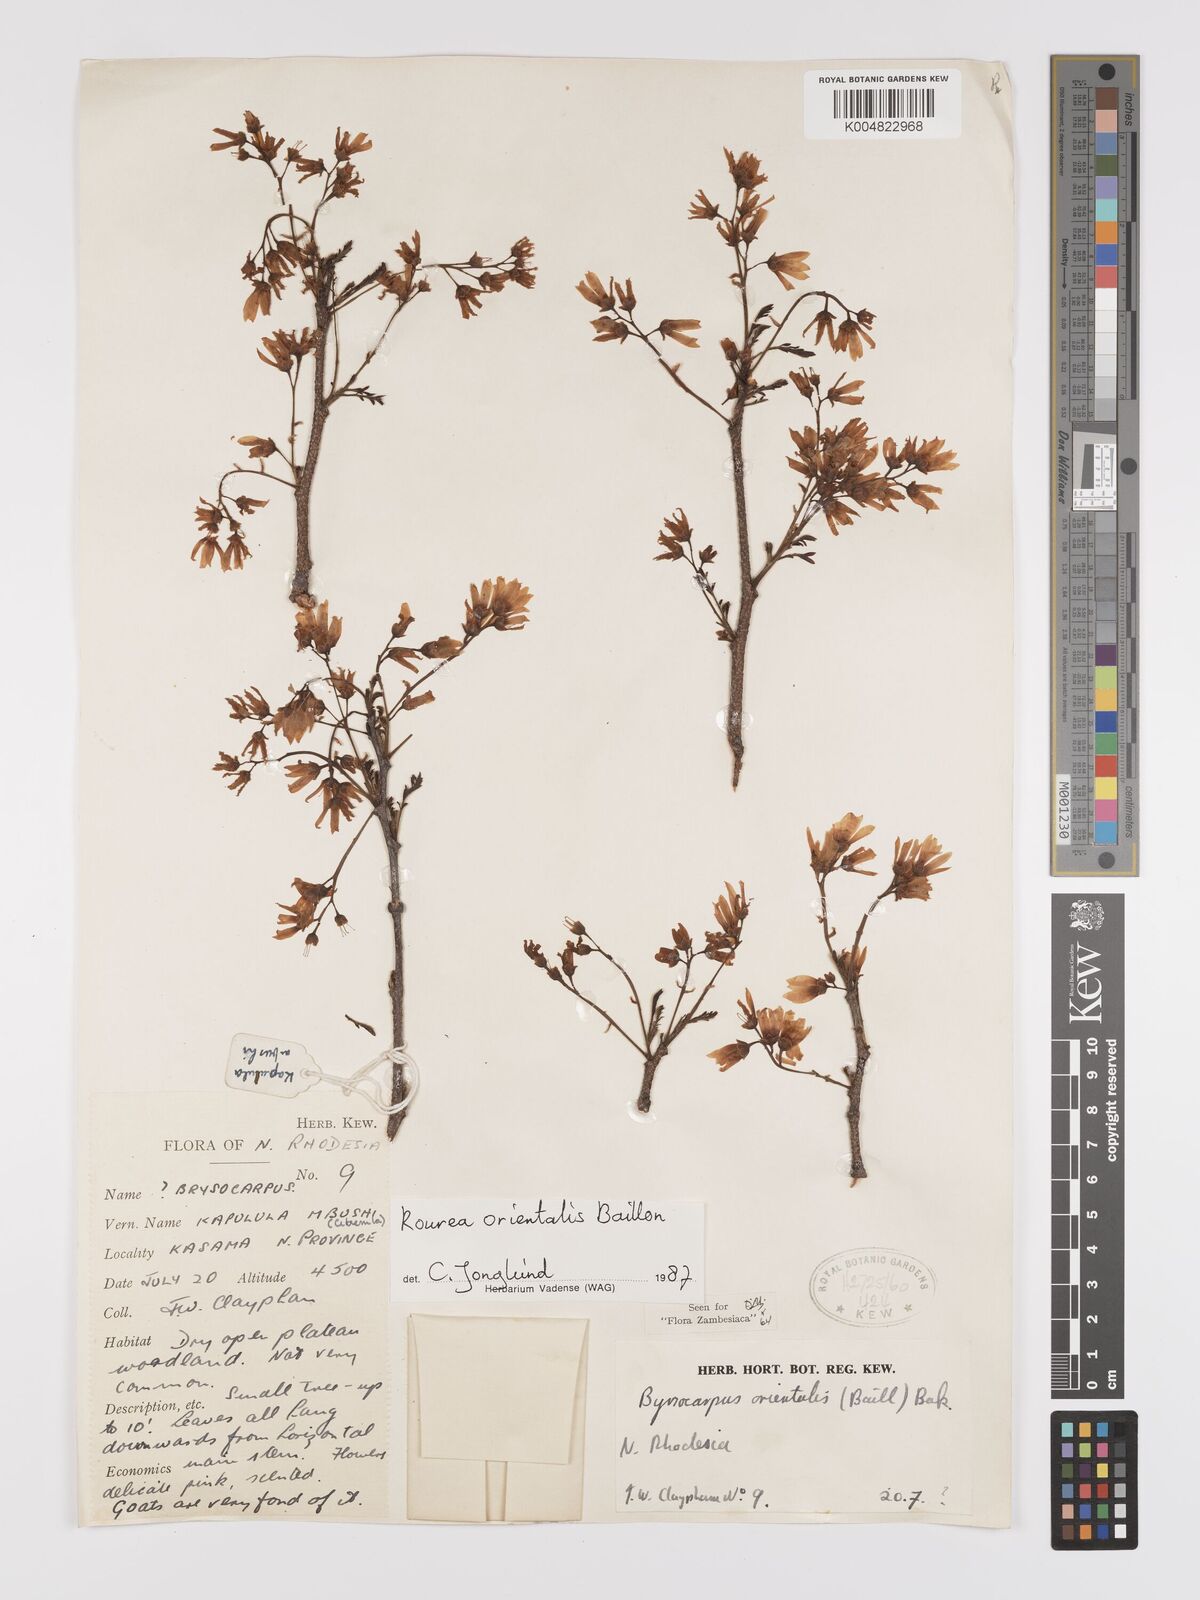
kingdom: Plantae
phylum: Tracheophyta
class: Magnoliopsida
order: Oxalidales
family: Connaraceae
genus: Rourea
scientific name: Rourea orientalis
